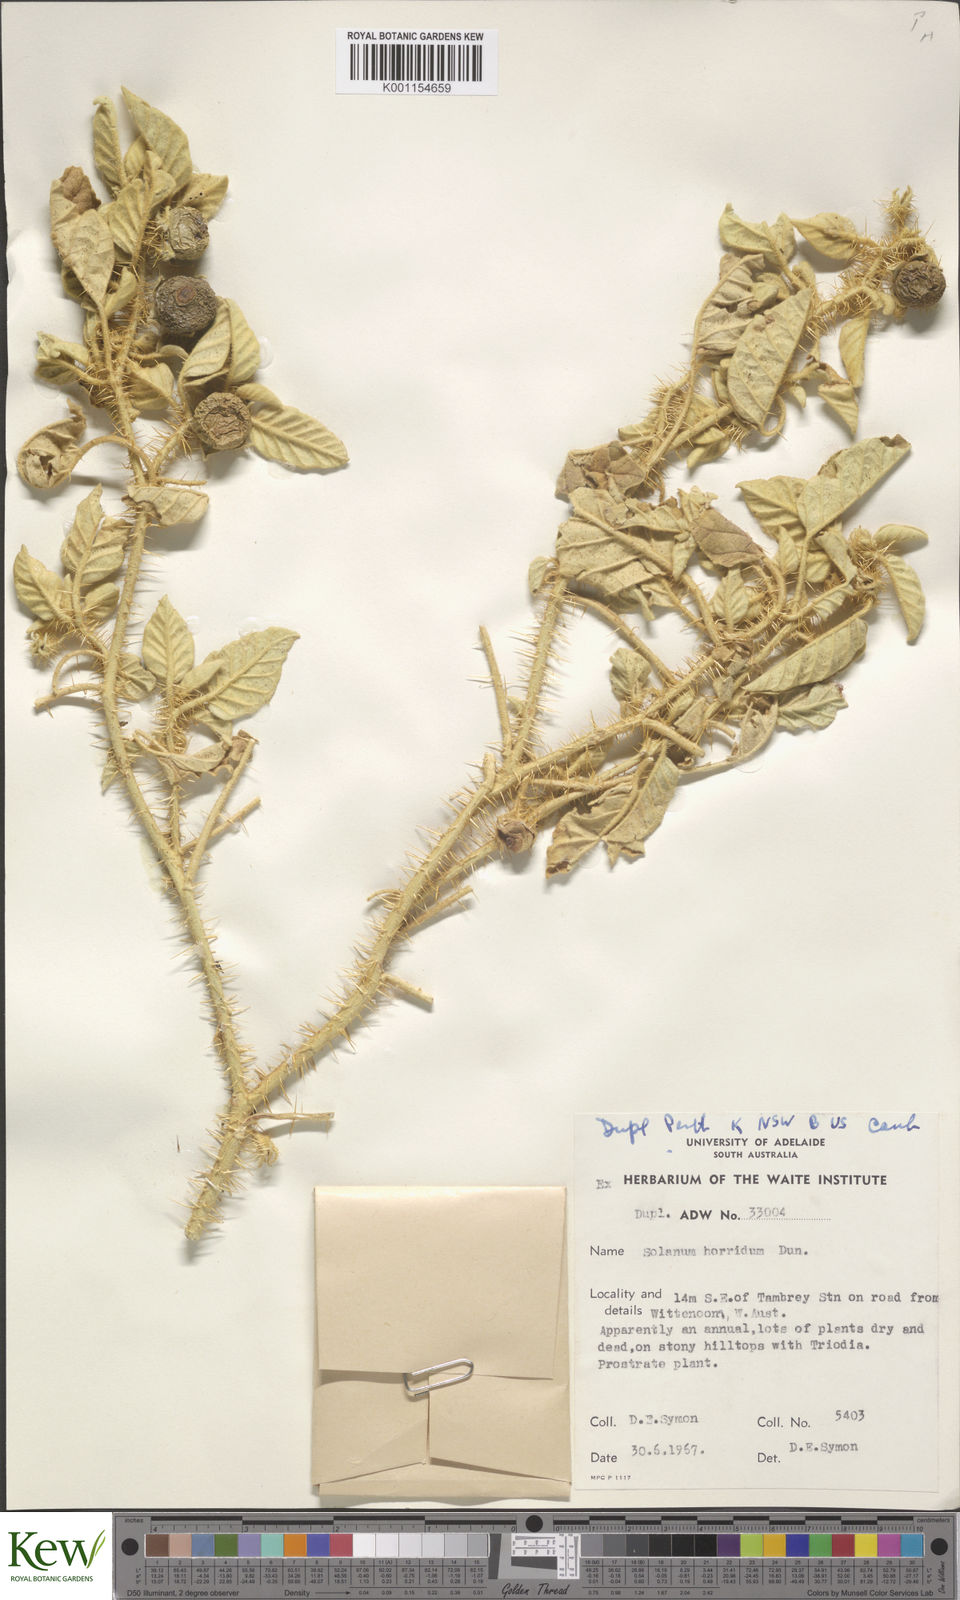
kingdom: Plantae
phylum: Tracheophyta
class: Magnoliopsida
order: Solanales
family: Solanaceae
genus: Solanum
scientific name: Solanum horridum
